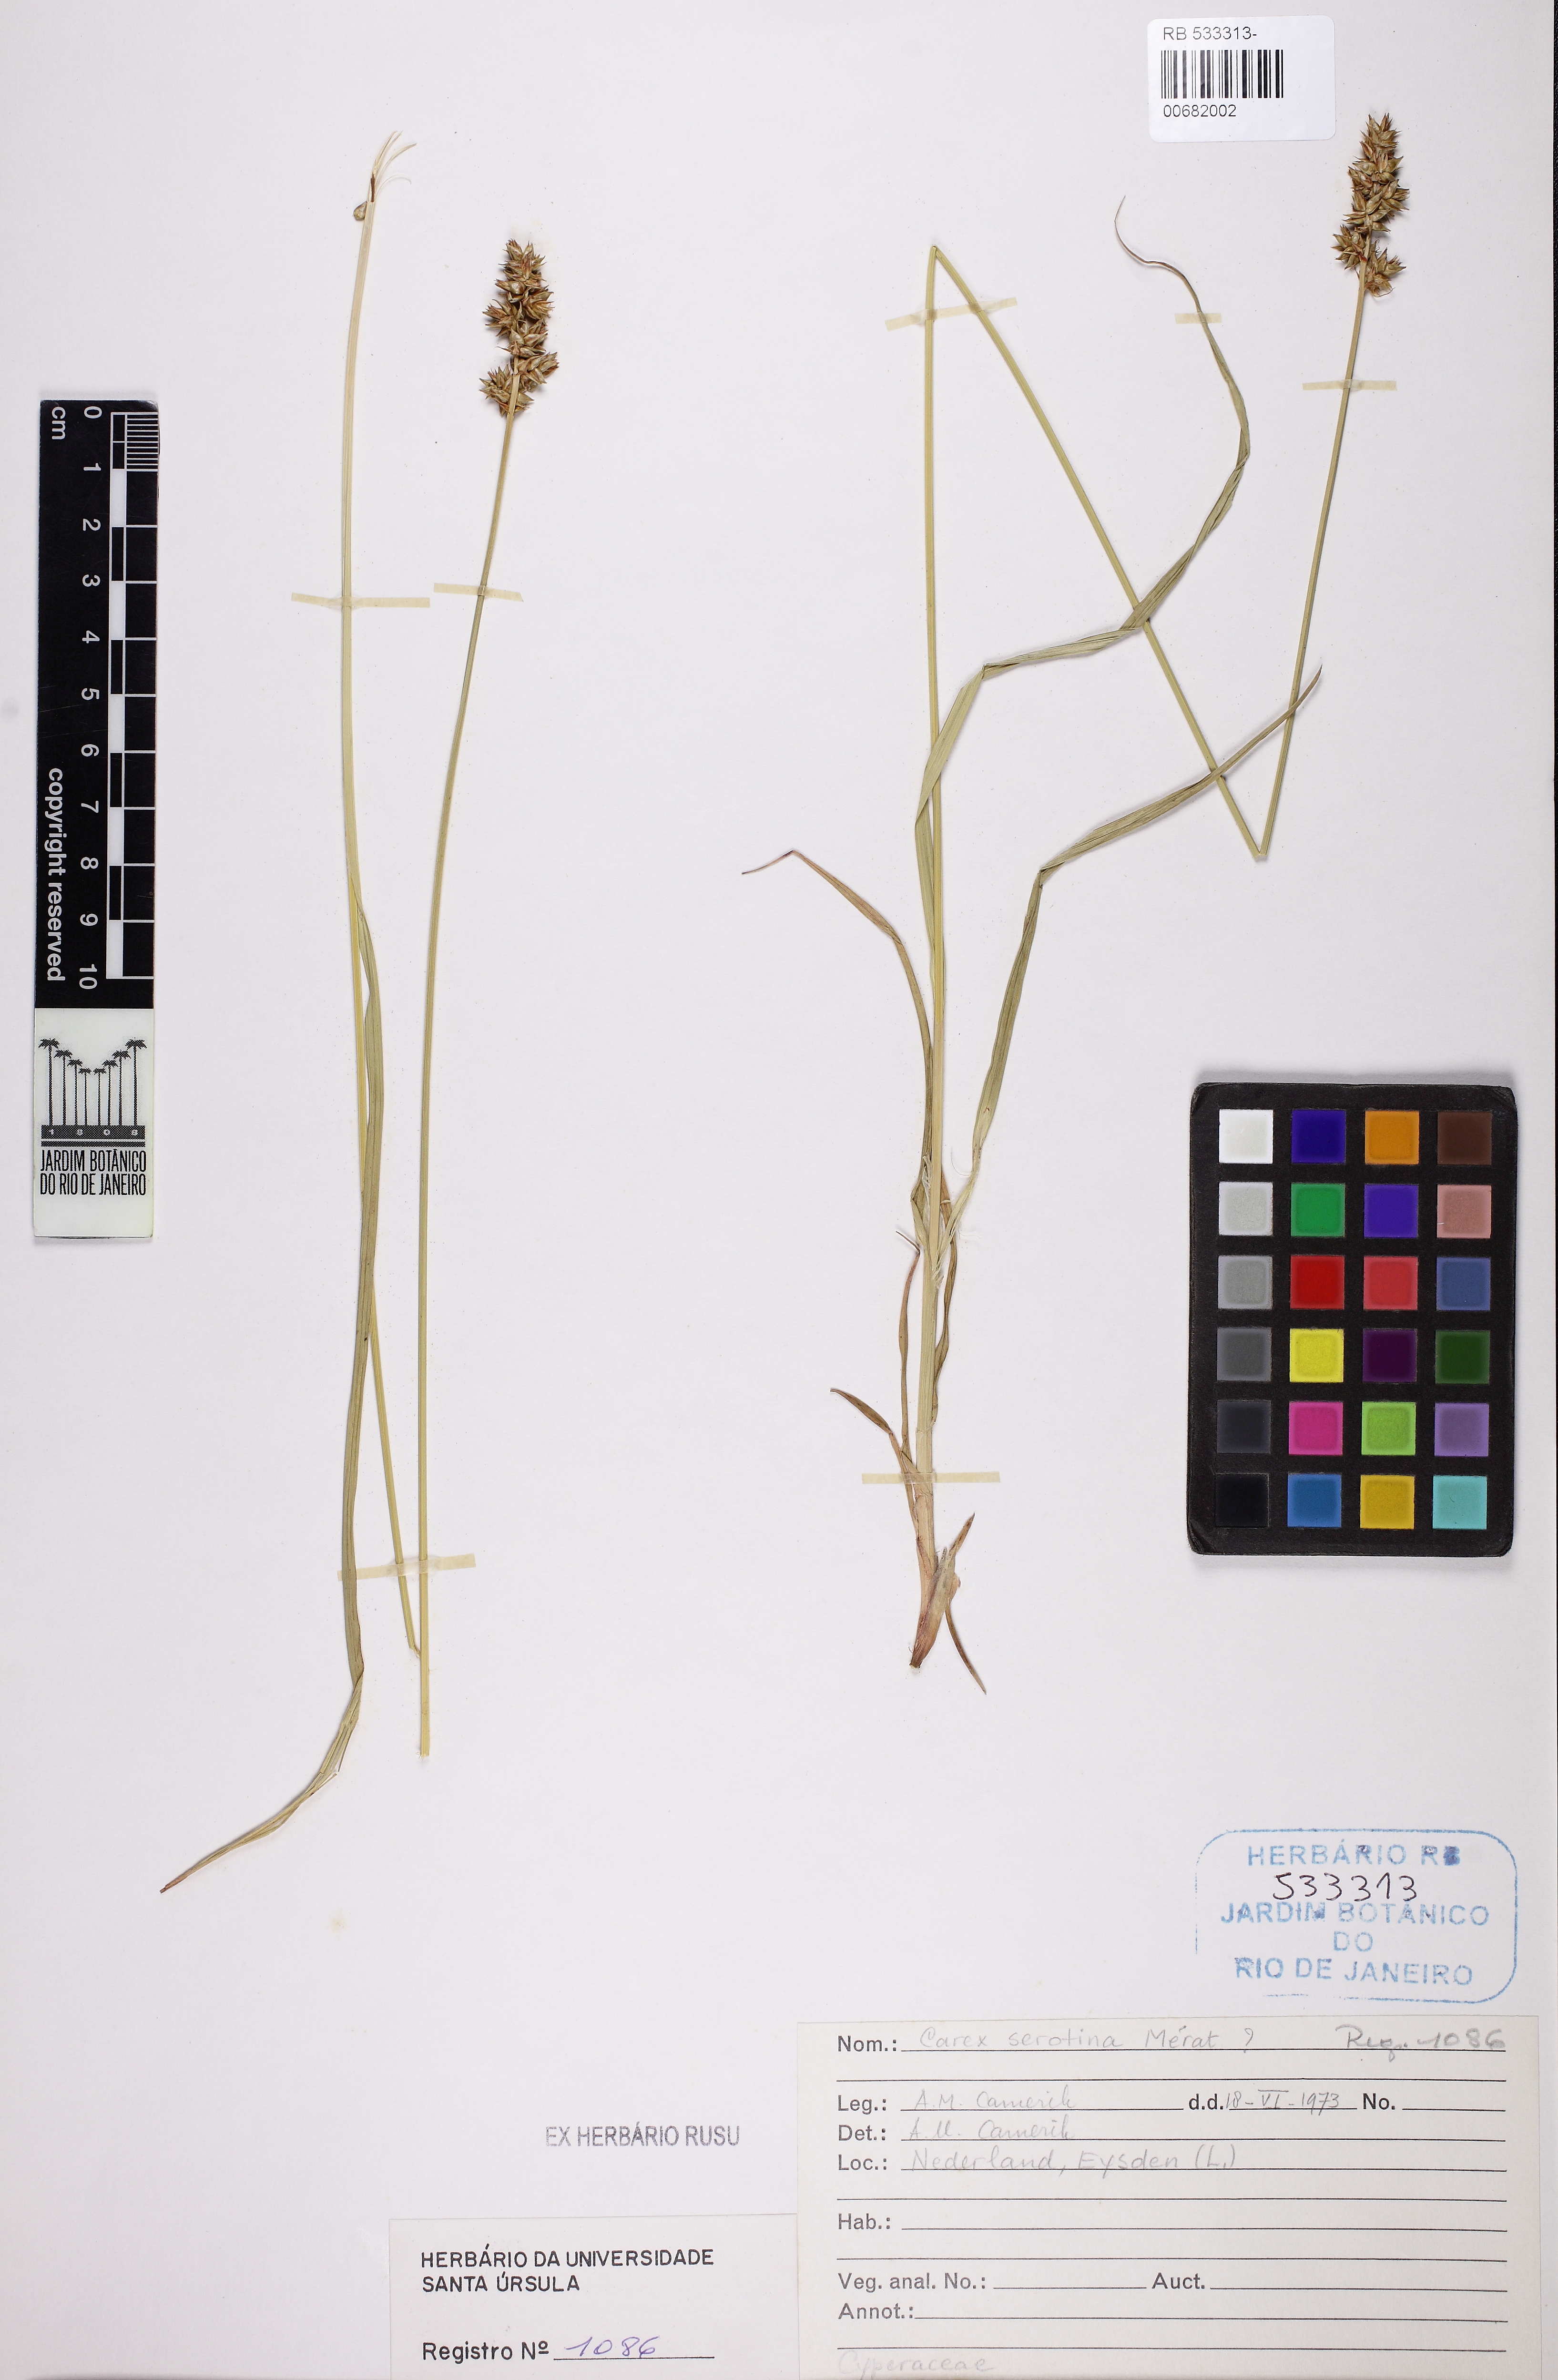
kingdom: Plantae
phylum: Tracheophyta
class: Liliopsida
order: Poales
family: Cyperaceae
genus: Carex
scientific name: Carex oederi
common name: Common & small-fruited yellow-sedge
